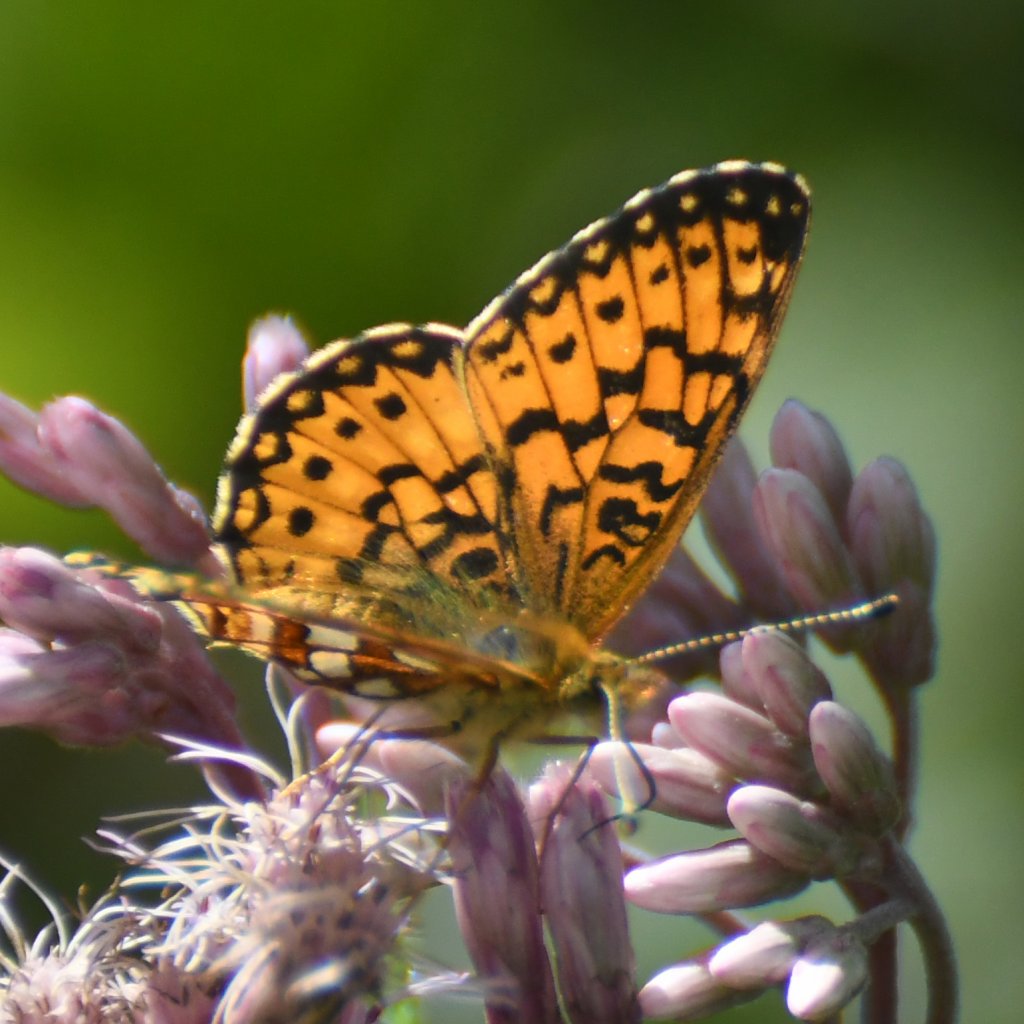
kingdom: Animalia
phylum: Arthropoda
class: Insecta
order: Lepidoptera
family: Nymphalidae
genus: Boloria
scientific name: Boloria selene
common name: Silver-bordered Fritillary
